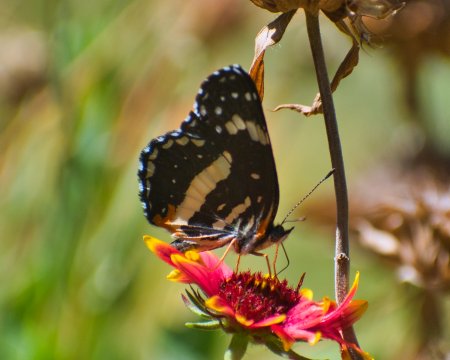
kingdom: Animalia
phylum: Arthropoda
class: Insecta
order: Lepidoptera
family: Nymphalidae
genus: Chlosyne
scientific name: Chlosyne lacinia
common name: Bordered Patch
